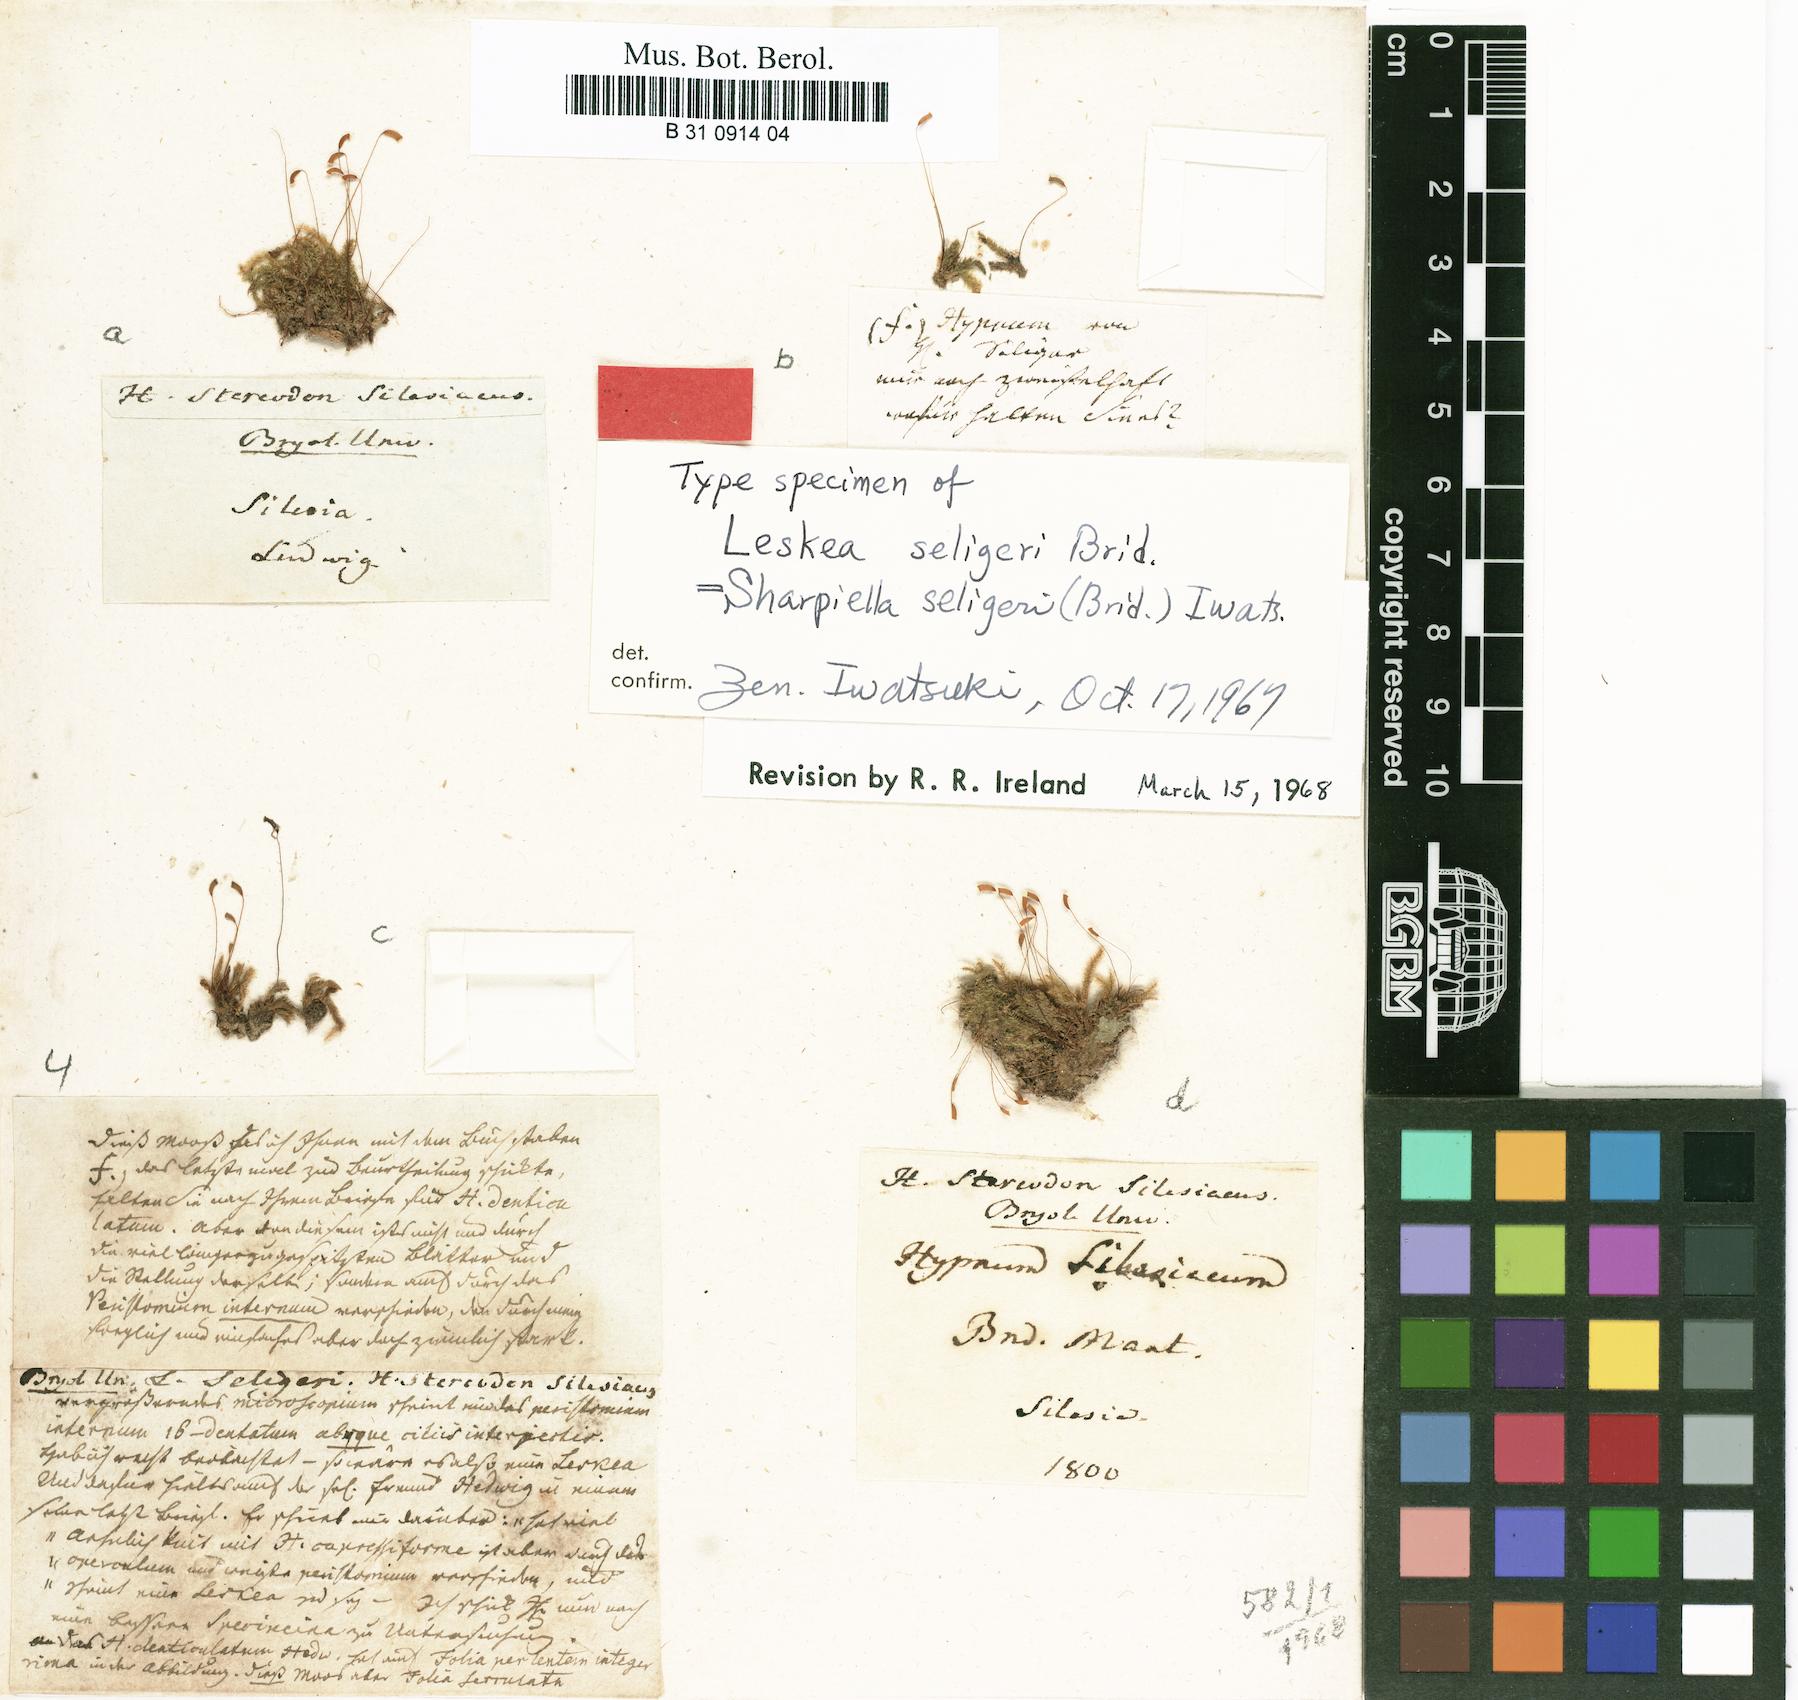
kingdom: Plantae
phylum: Bryophyta
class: Bryopsida
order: Hypnales
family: Plagiotheciaceae
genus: Herzogiella
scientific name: Herzogiella seligeri
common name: Silesian feather-moss
